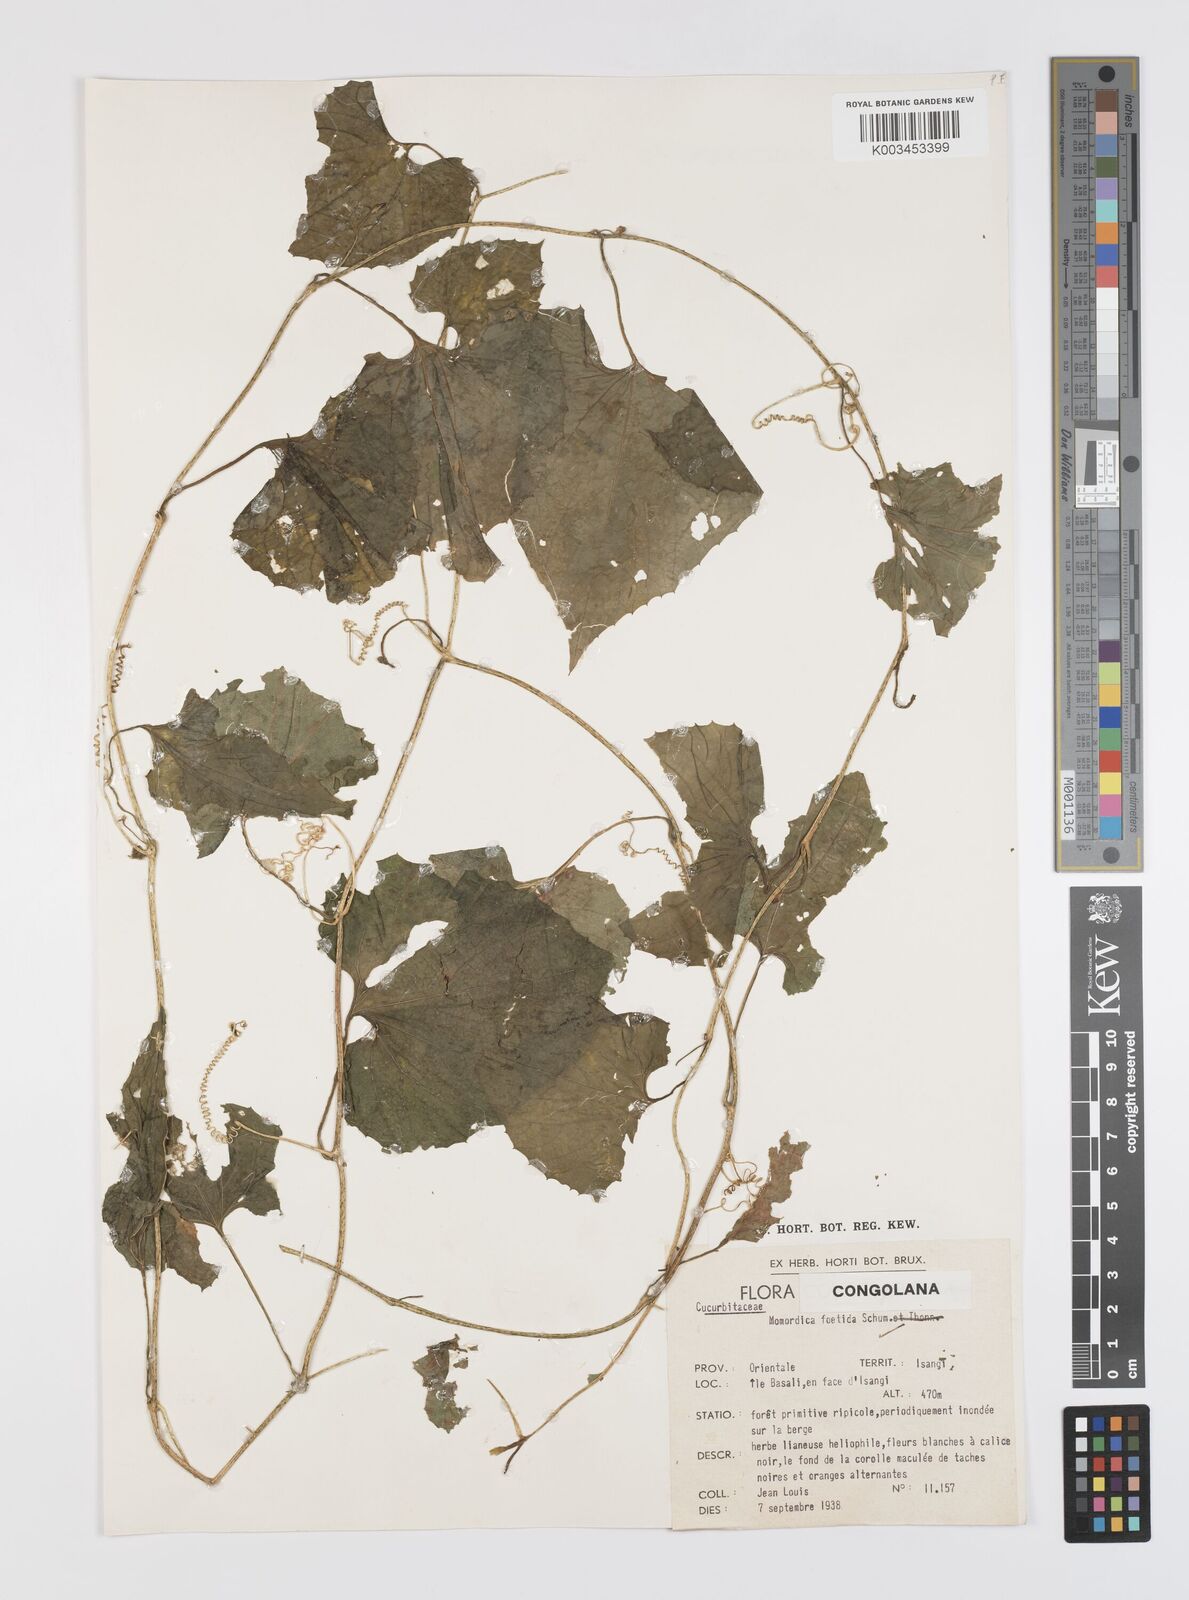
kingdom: Plantae
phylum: Tracheophyta
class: Magnoliopsida
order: Cucurbitales
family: Cucurbitaceae
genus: Momordica
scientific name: Momordica foetida
